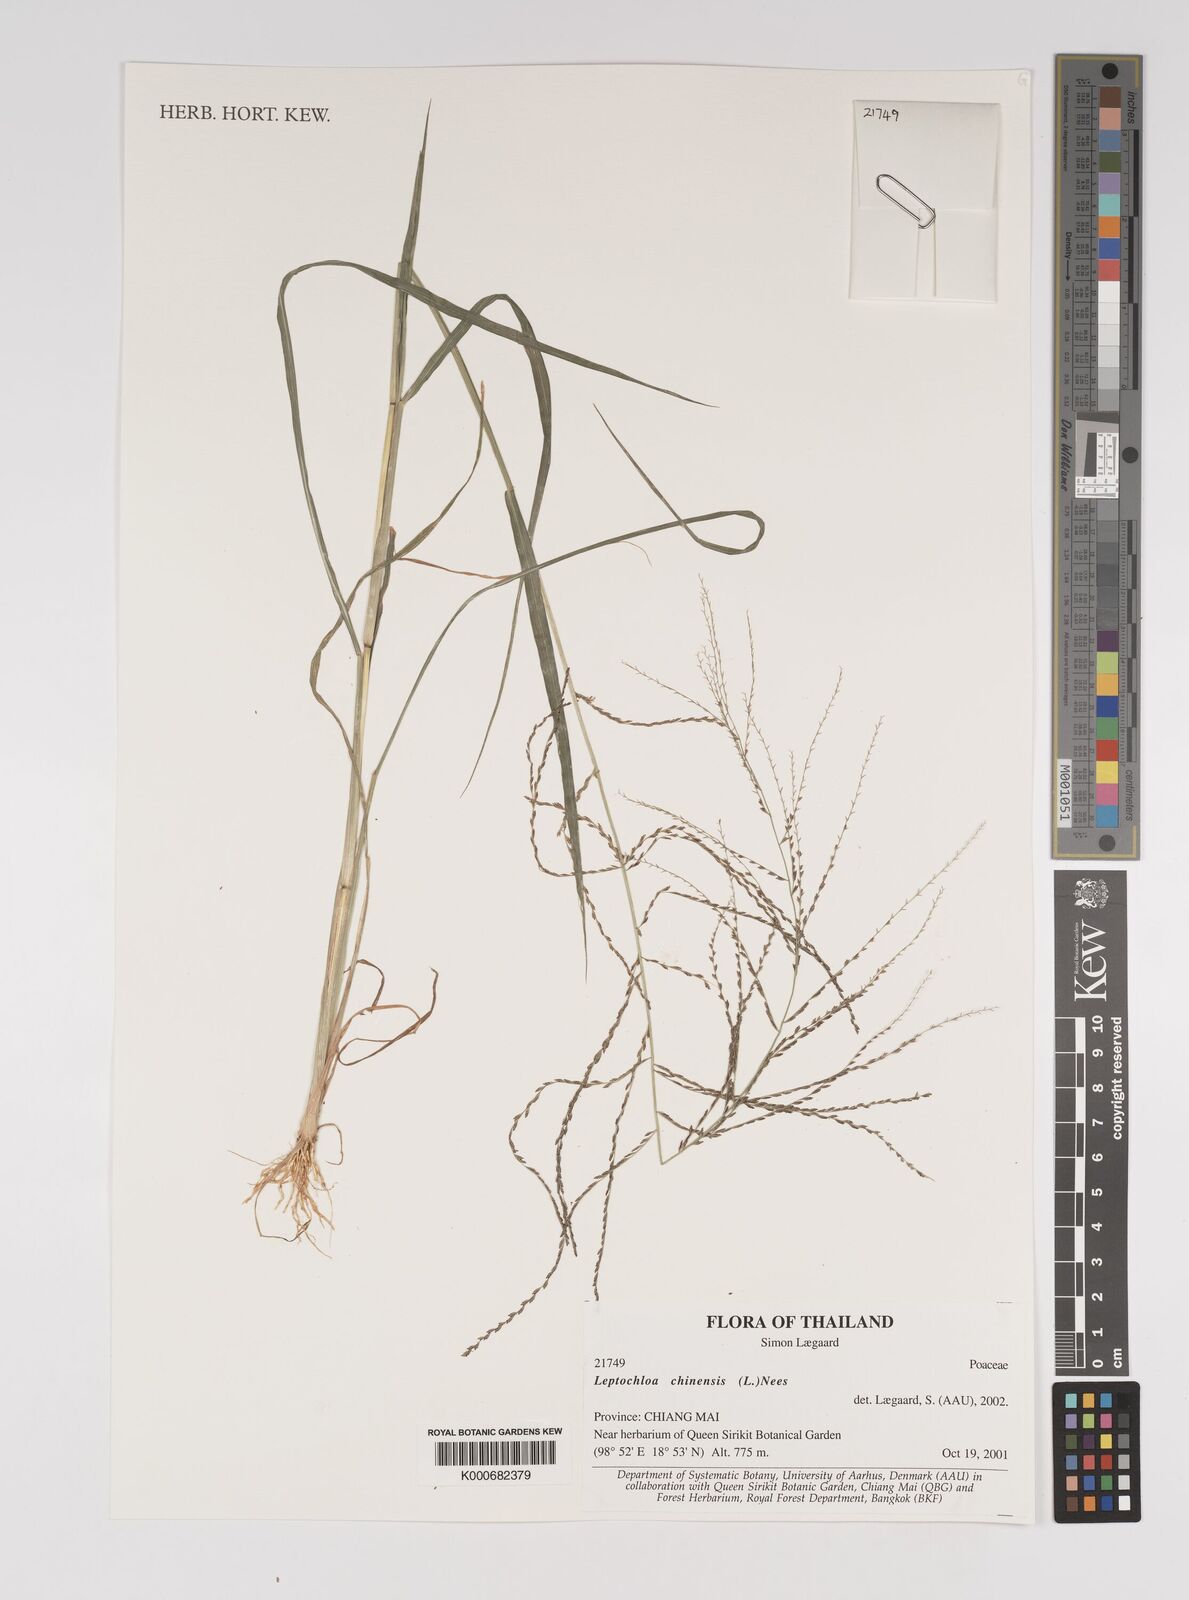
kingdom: Plantae
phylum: Tracheophyta
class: Liliopsida
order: Poales
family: Poaceae
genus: Leptochloa
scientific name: Leptochloa chinensis
